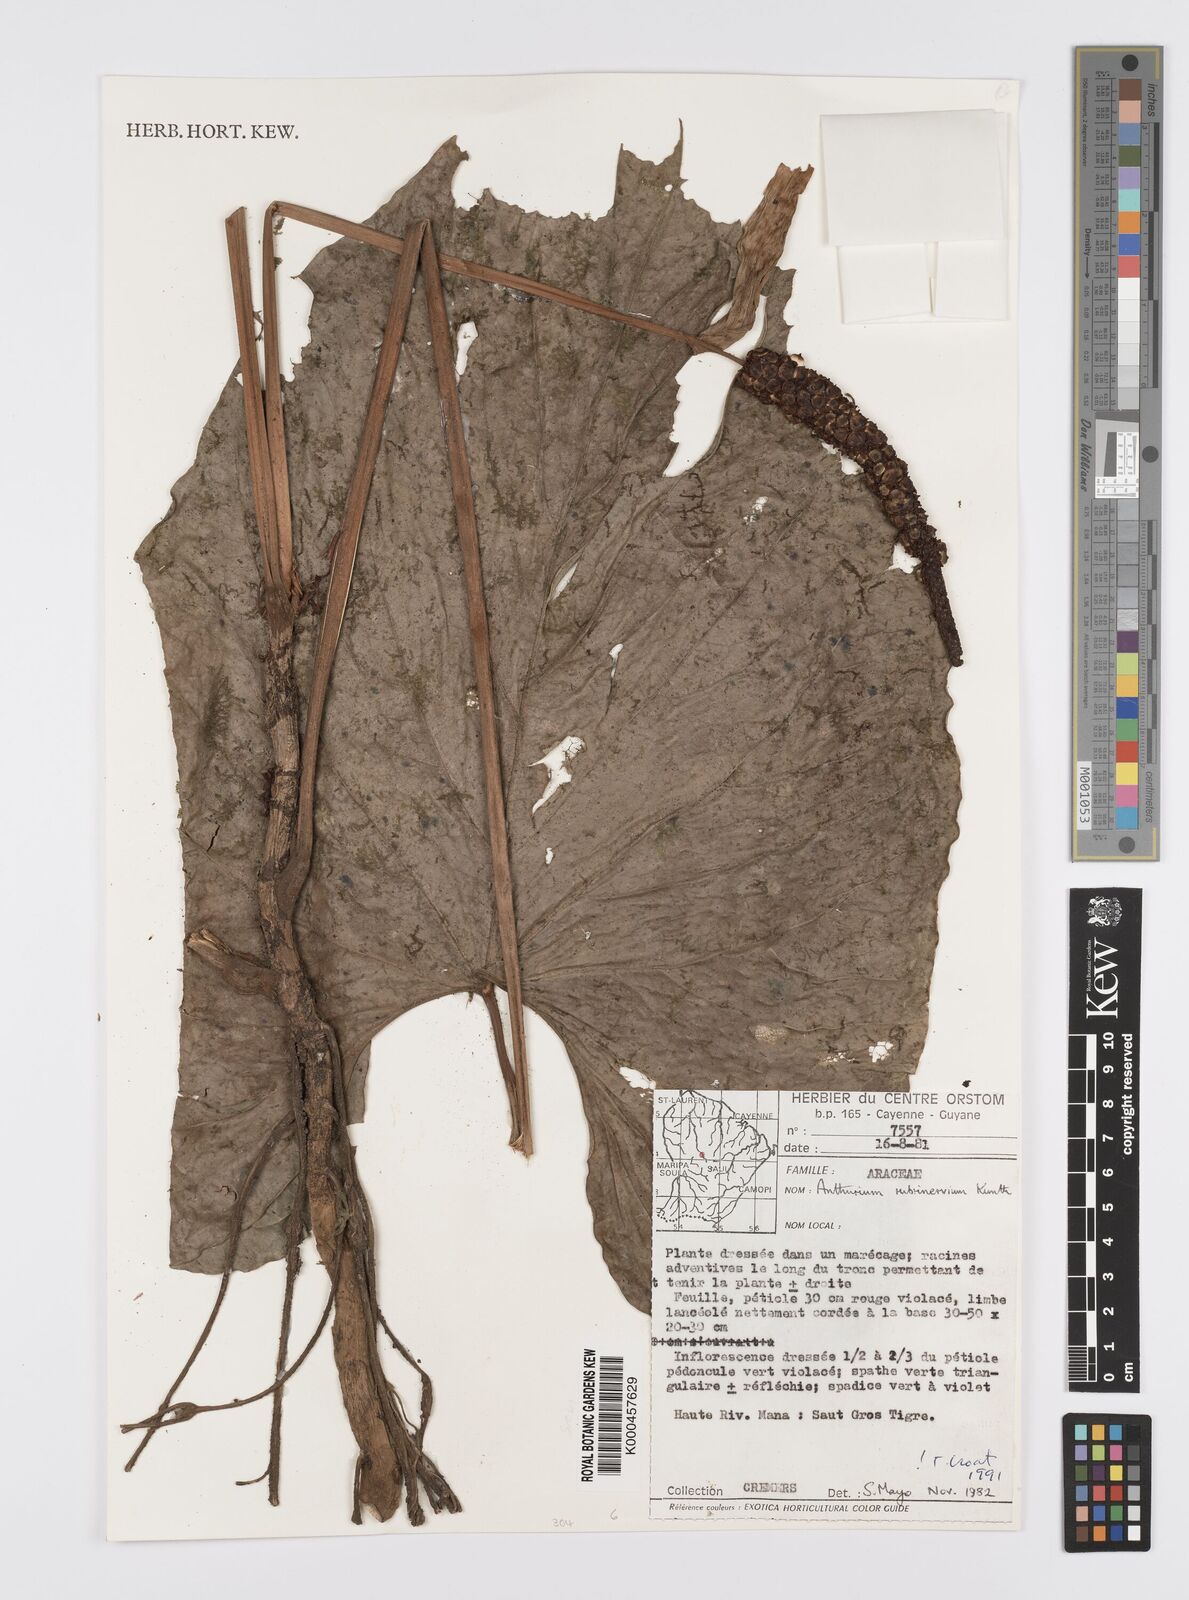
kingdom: Plantae
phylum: Tracheophyta
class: Liliopsida
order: Alismatales
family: Araceae
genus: Anthurium
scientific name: Anthurium sagittatum
